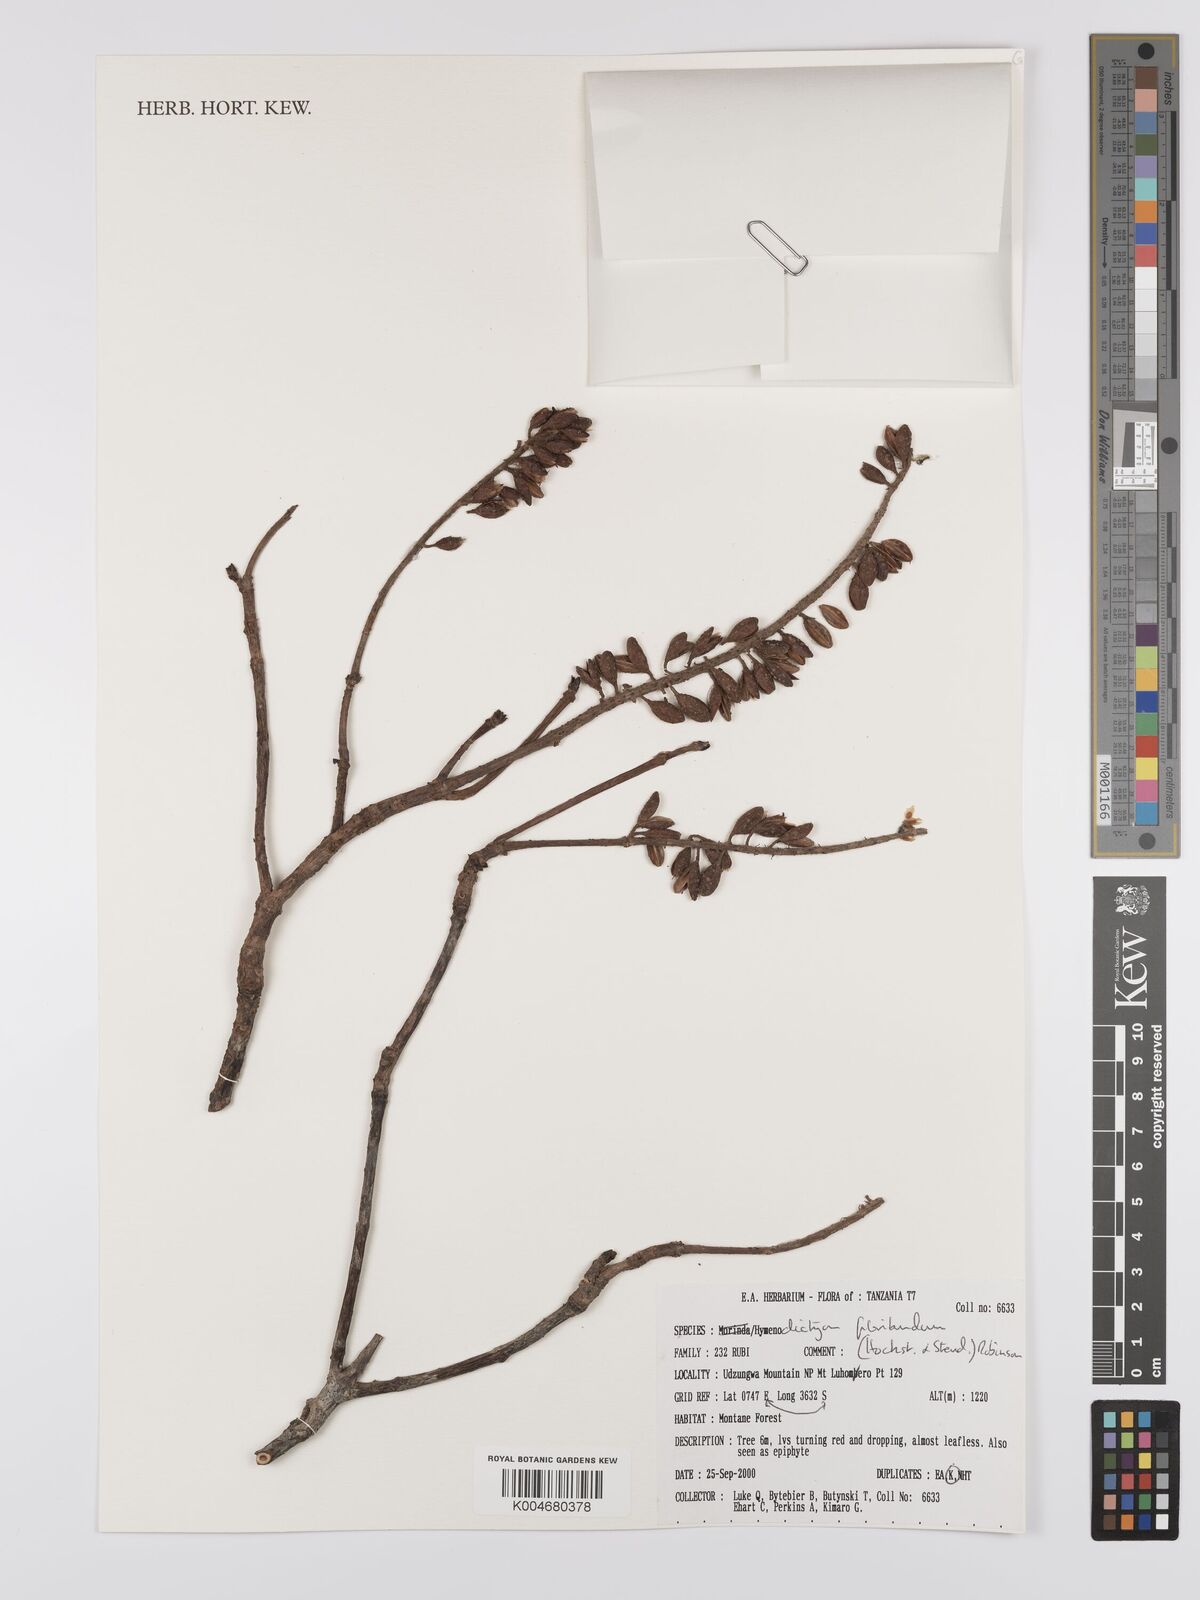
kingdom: Plantae
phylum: Tracheophyta
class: Magnoliopsida
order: Gentianales
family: Rubiaceae
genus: Hymenodictyon
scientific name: Hymenodictyon floribundum
